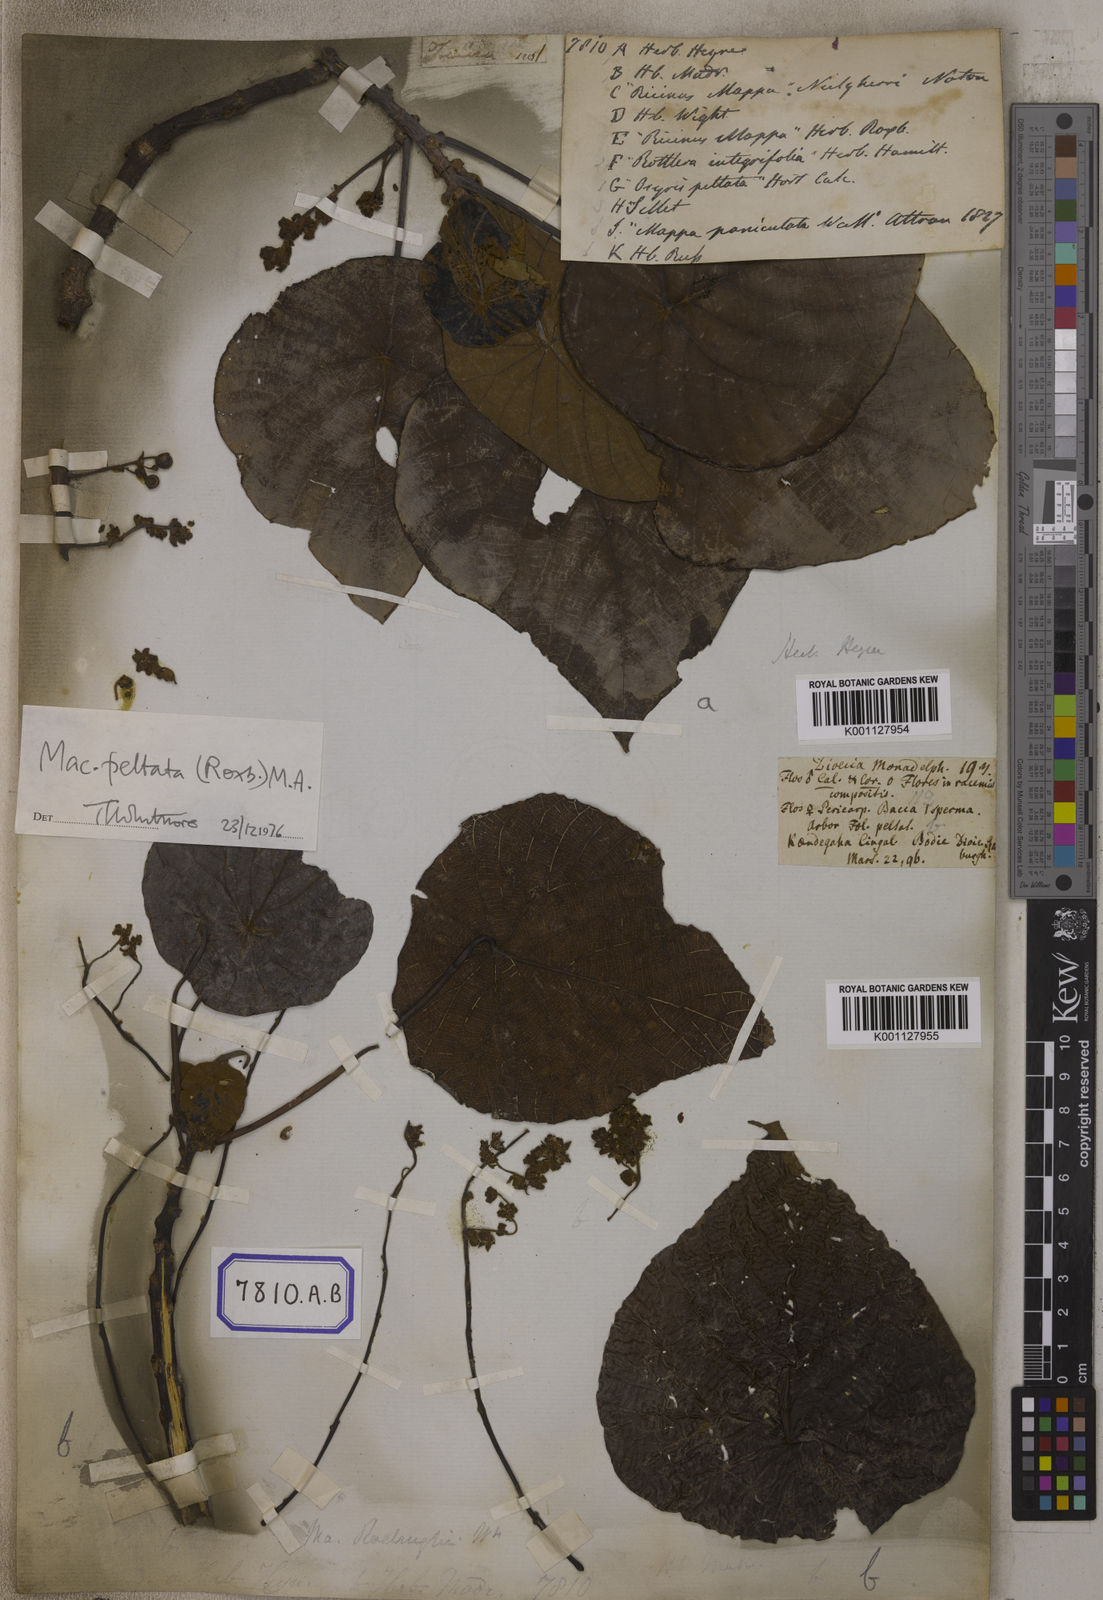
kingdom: Plantae
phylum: Tracheophyta
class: Magnoliopsida
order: Malpighiales
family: Euphorbiaceae
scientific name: Euphorbiaceae
